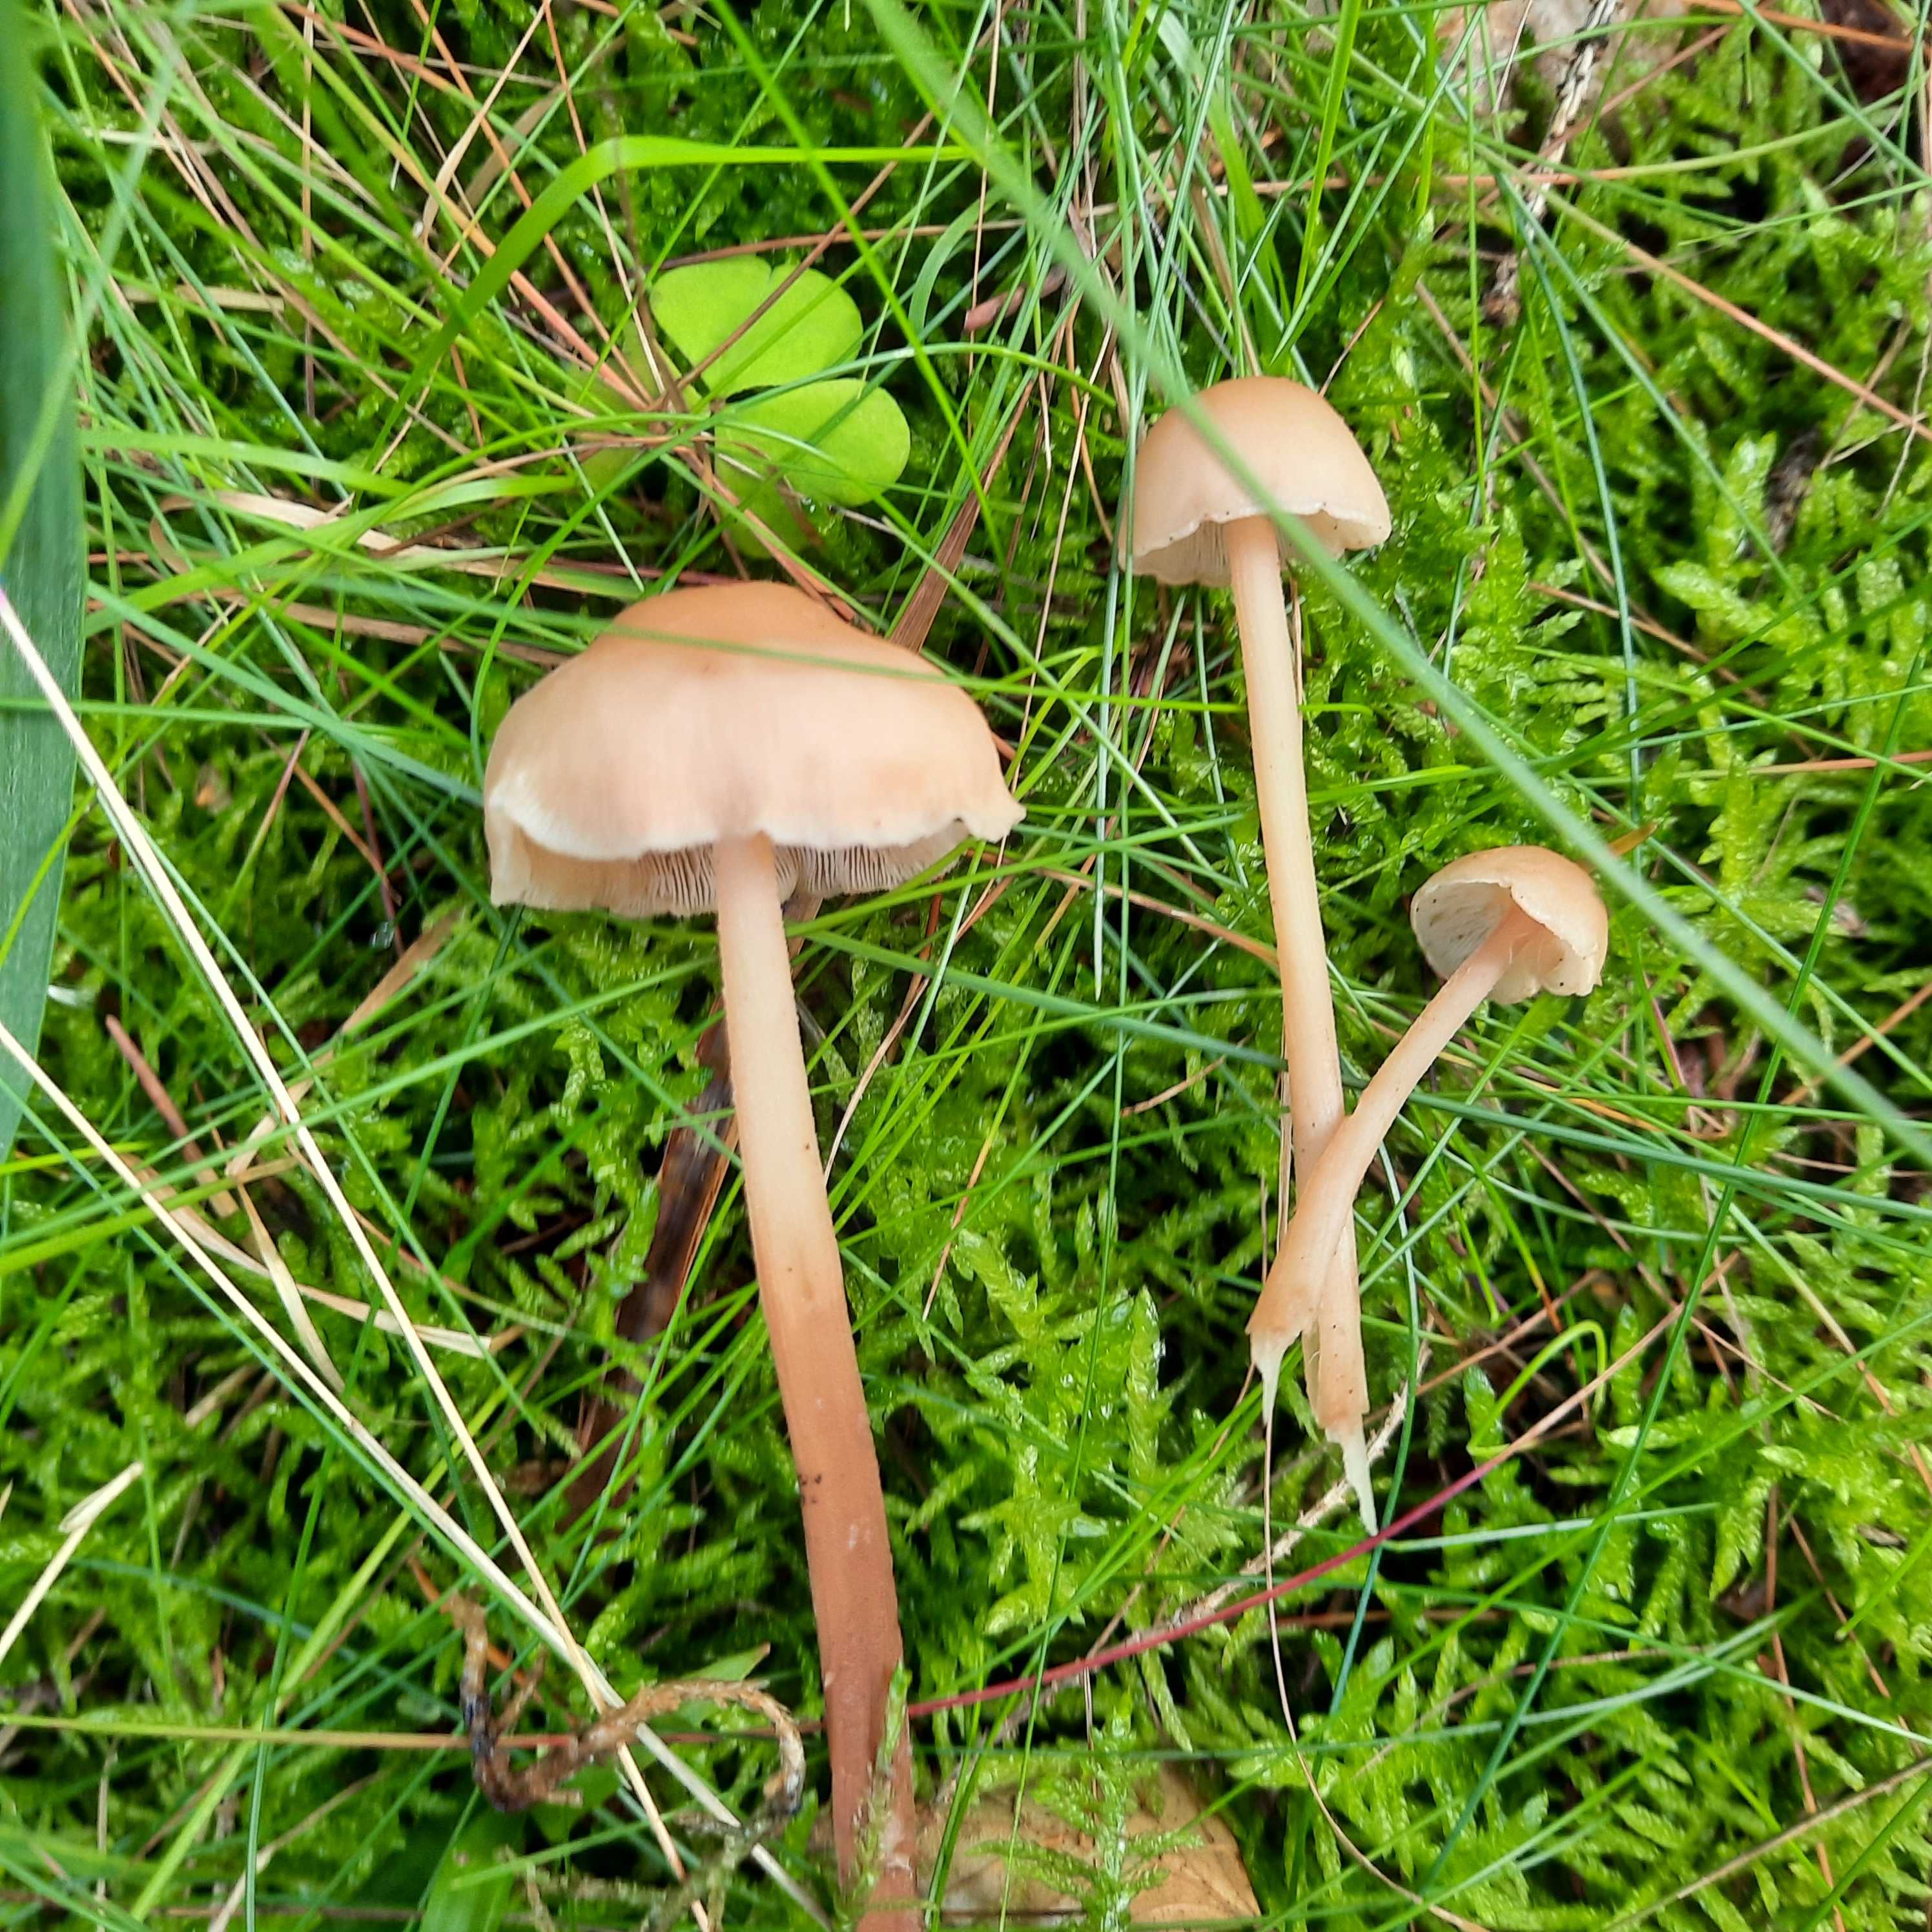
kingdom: Fungi
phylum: Basidiomycota
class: Agaricomycetes
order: Agaricales
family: Omphalotaceae
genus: Collybiopsis
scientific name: Collybiopsis confluens
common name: knippe-fladhat
